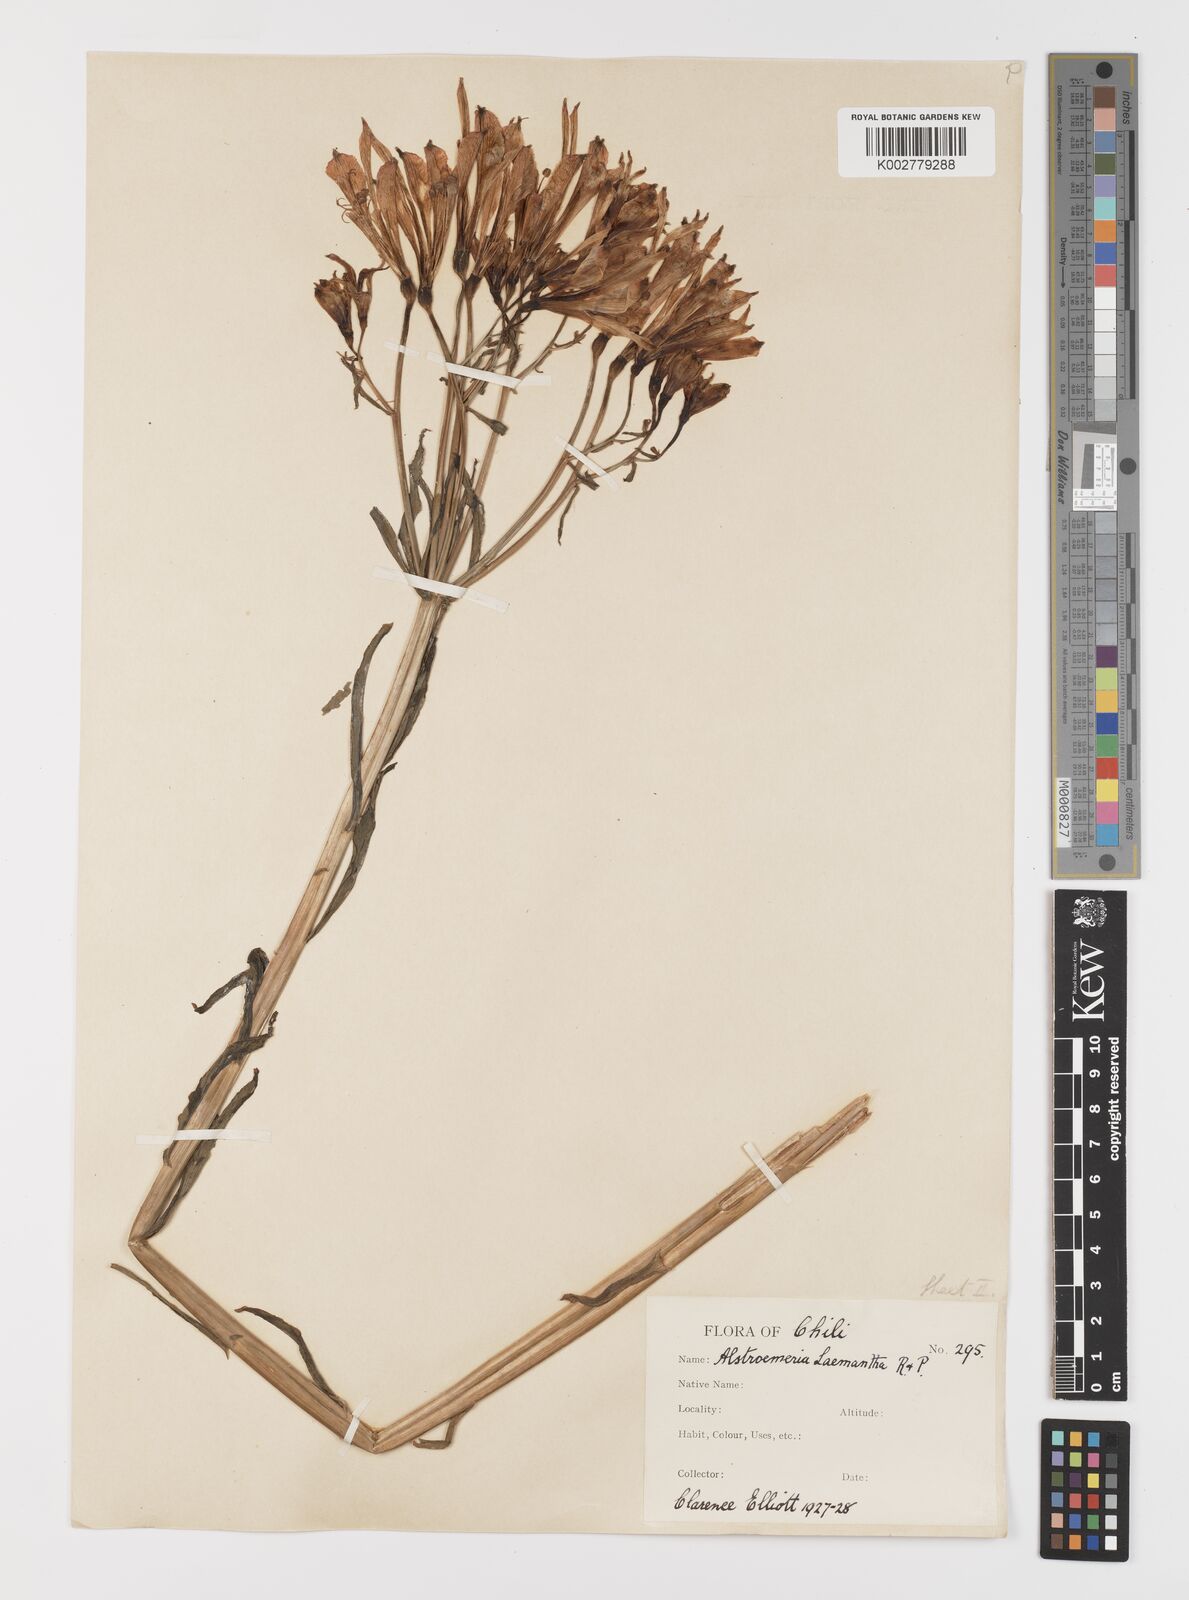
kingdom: Plantae
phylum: Tracheophyta
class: Liliopsida
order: Liliales
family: Alstroemeriaceae
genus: Alstroemeria
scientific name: Alstroemeria ligtu
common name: St. martin's-flower
